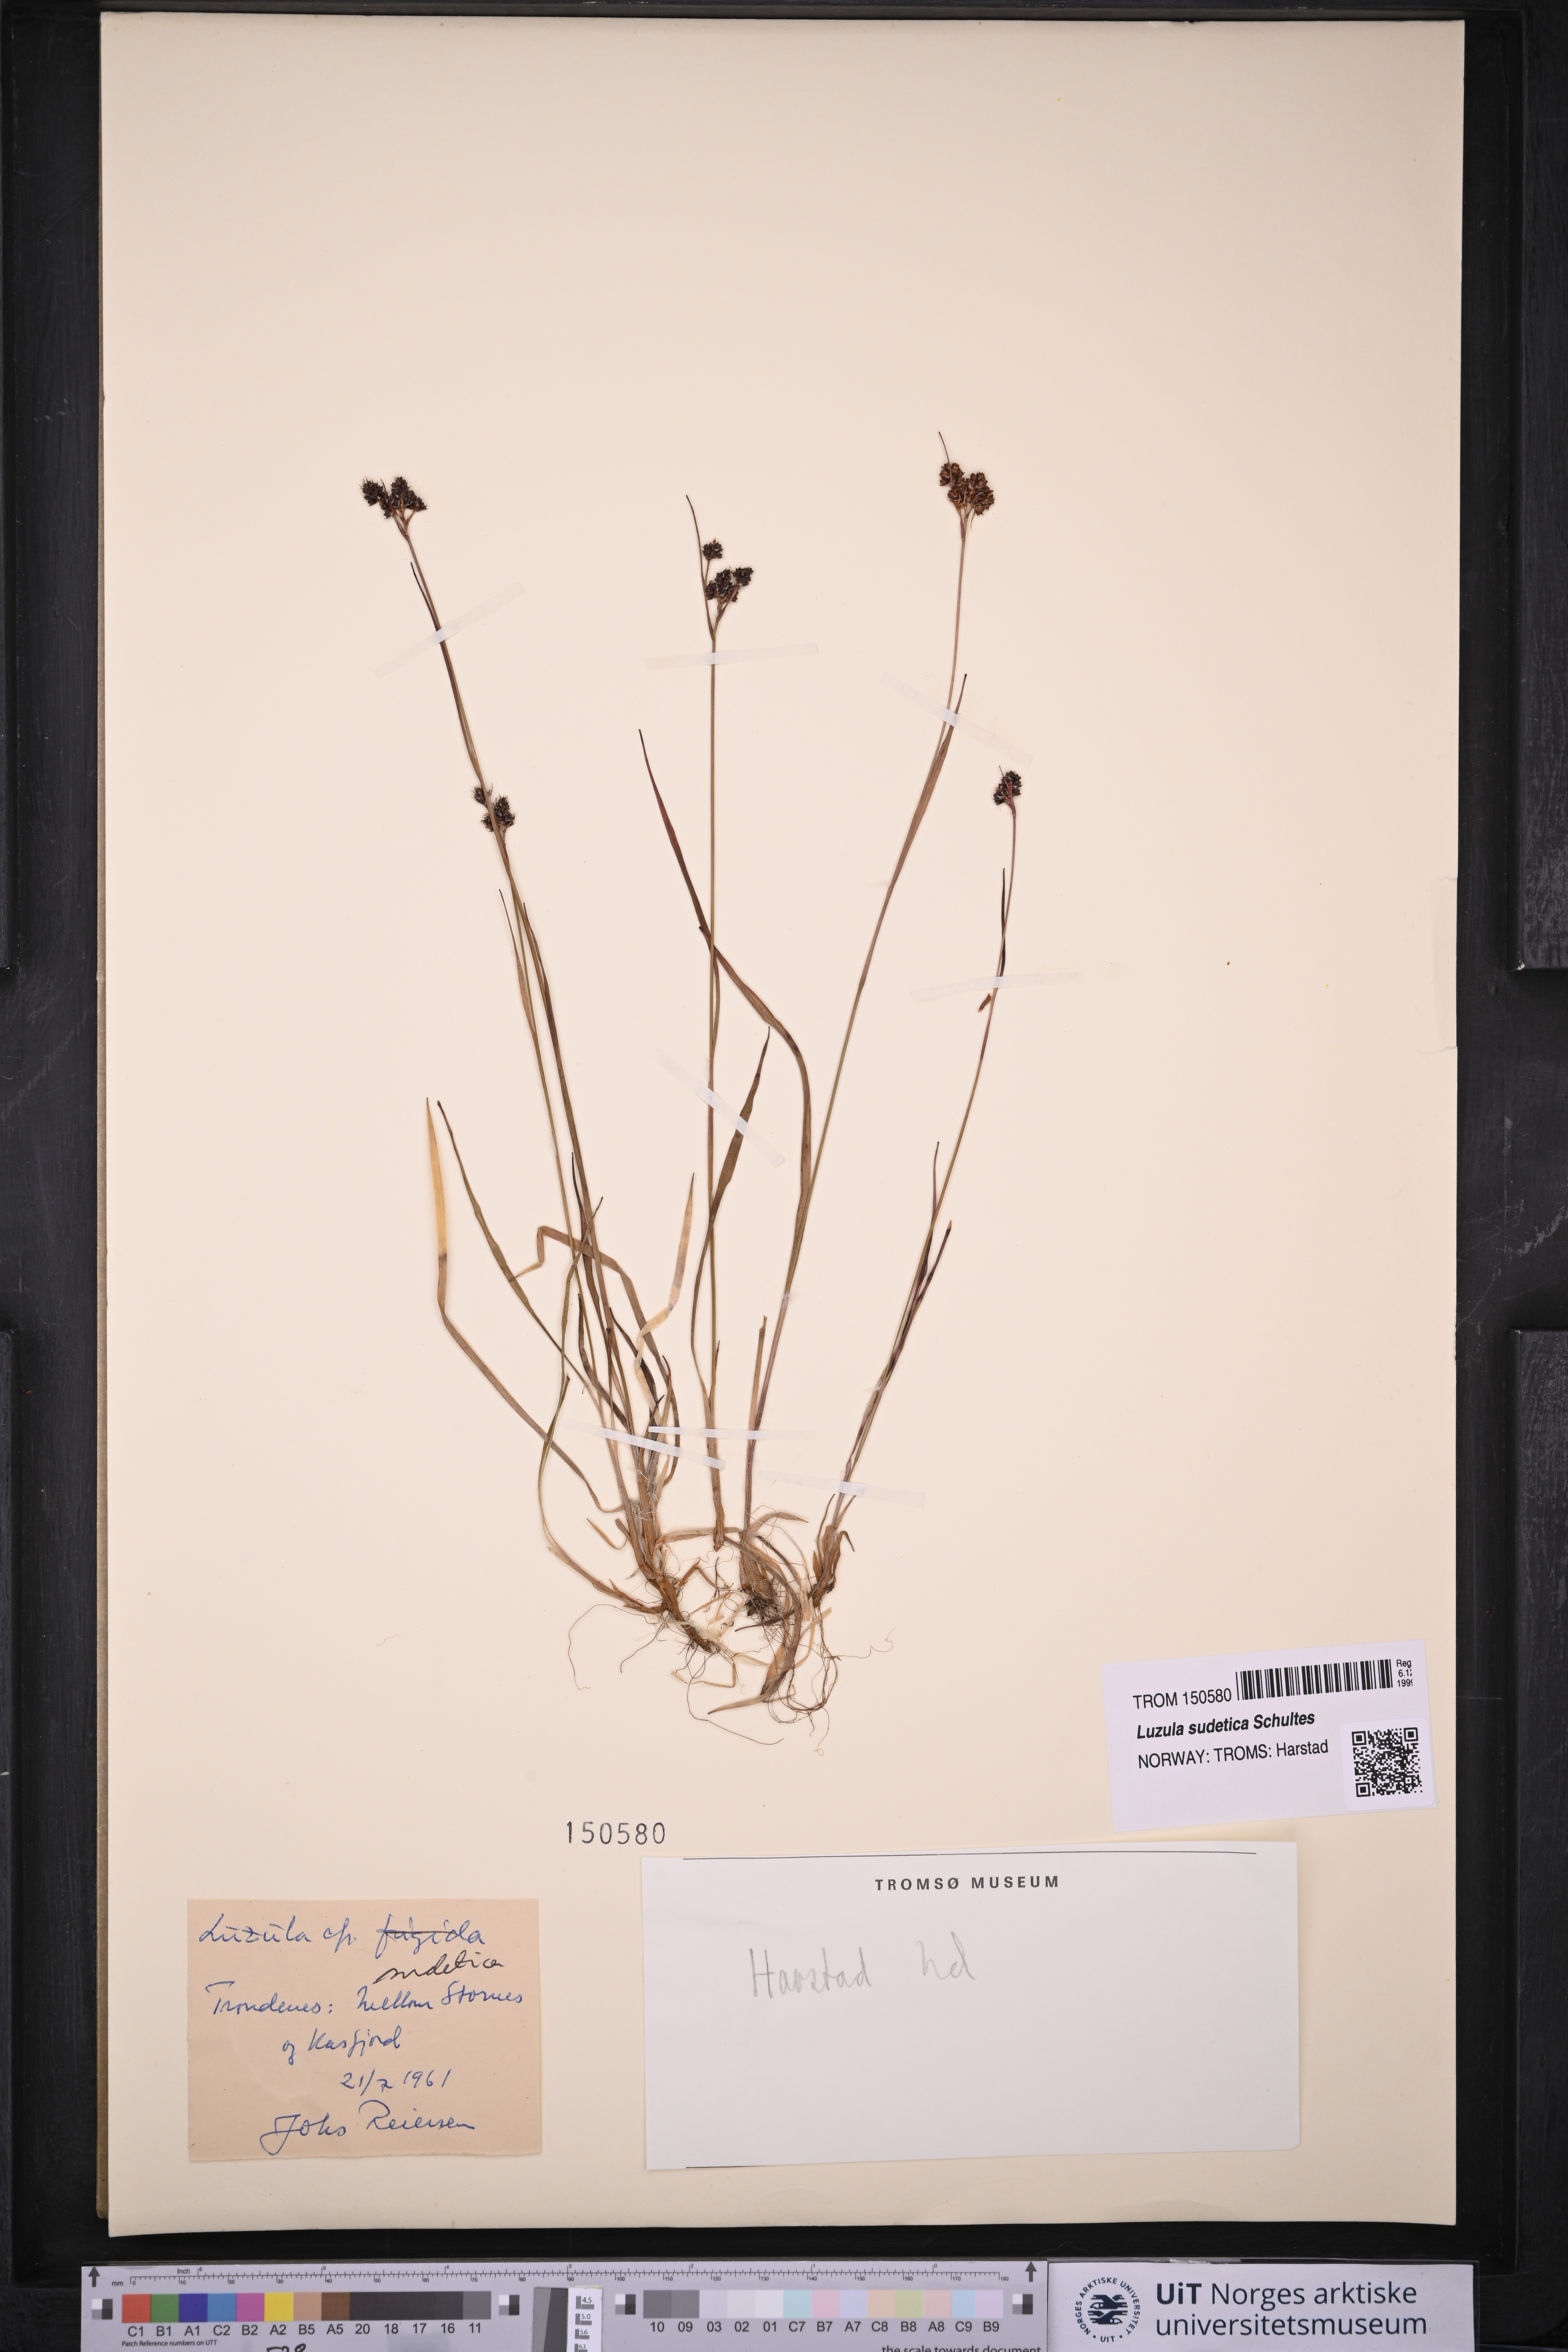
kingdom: Plantae
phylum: Tracheophyta
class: Liliopsida
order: Poales
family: Juncaceae
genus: Luzula
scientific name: Luzula sudetica
